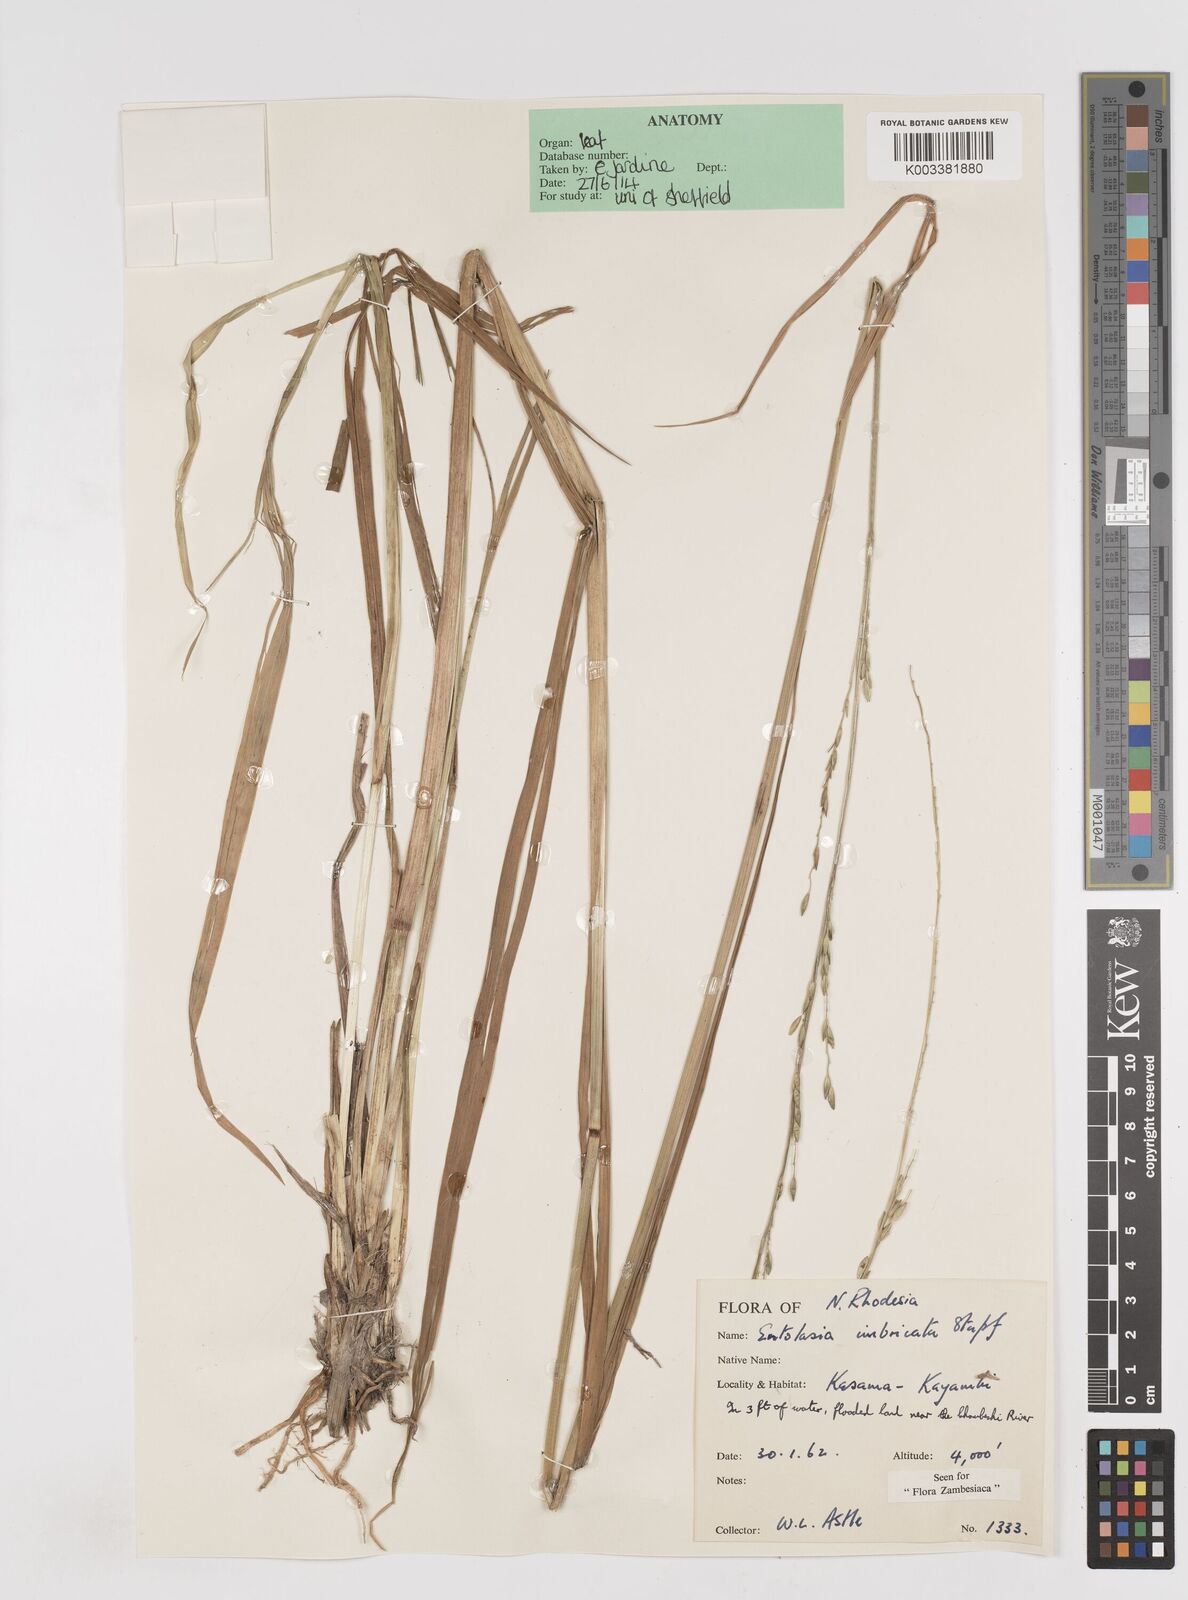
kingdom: Plantae
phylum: Tracheophyta
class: Liliopsida
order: Poales
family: Poaceae
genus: Entolasia
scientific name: Entolasia imbricata
